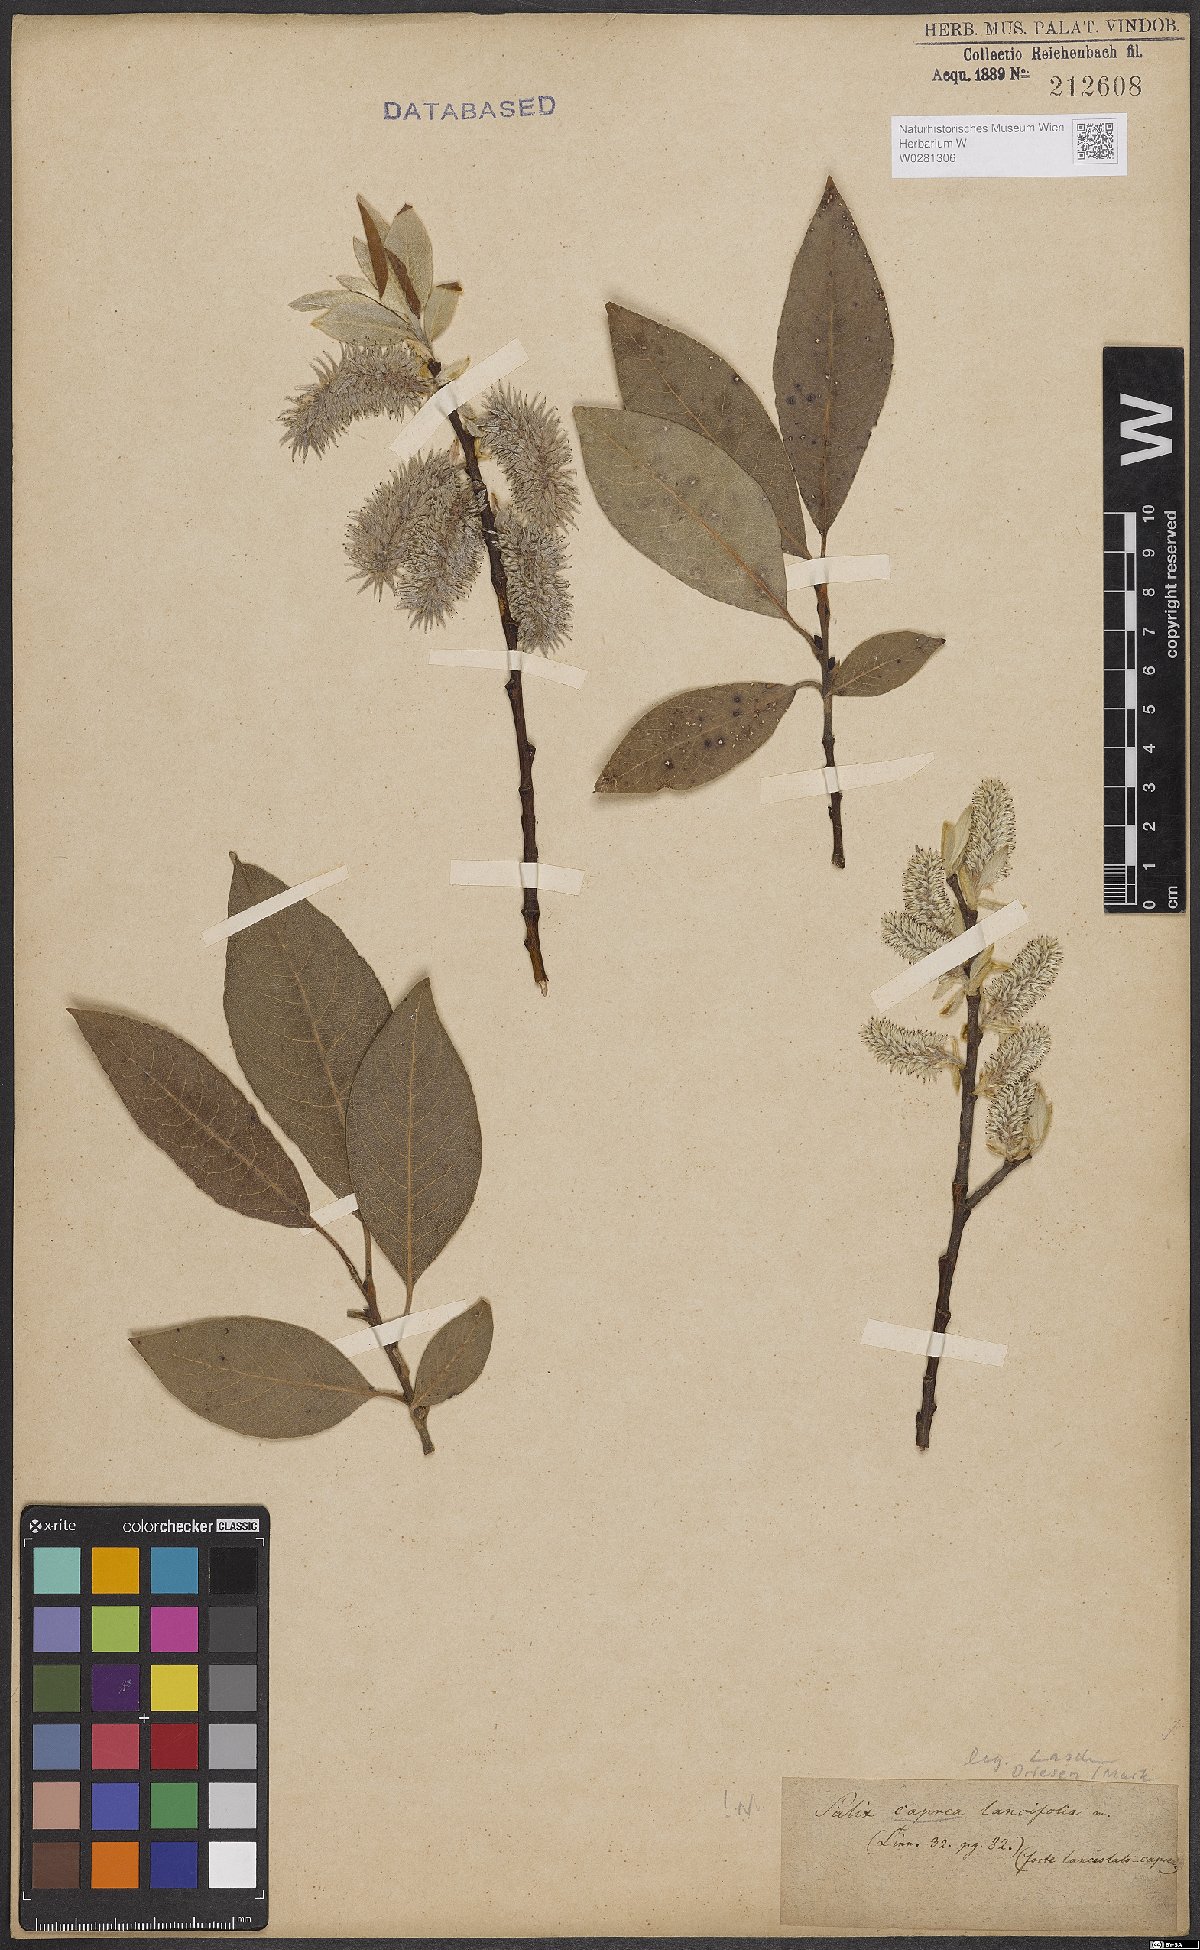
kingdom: Plantae
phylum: Tracheophyta
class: Magnoliopsida
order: Malpighiales
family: Salicaceae
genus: Salix
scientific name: Salix caprea
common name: Goat willow
